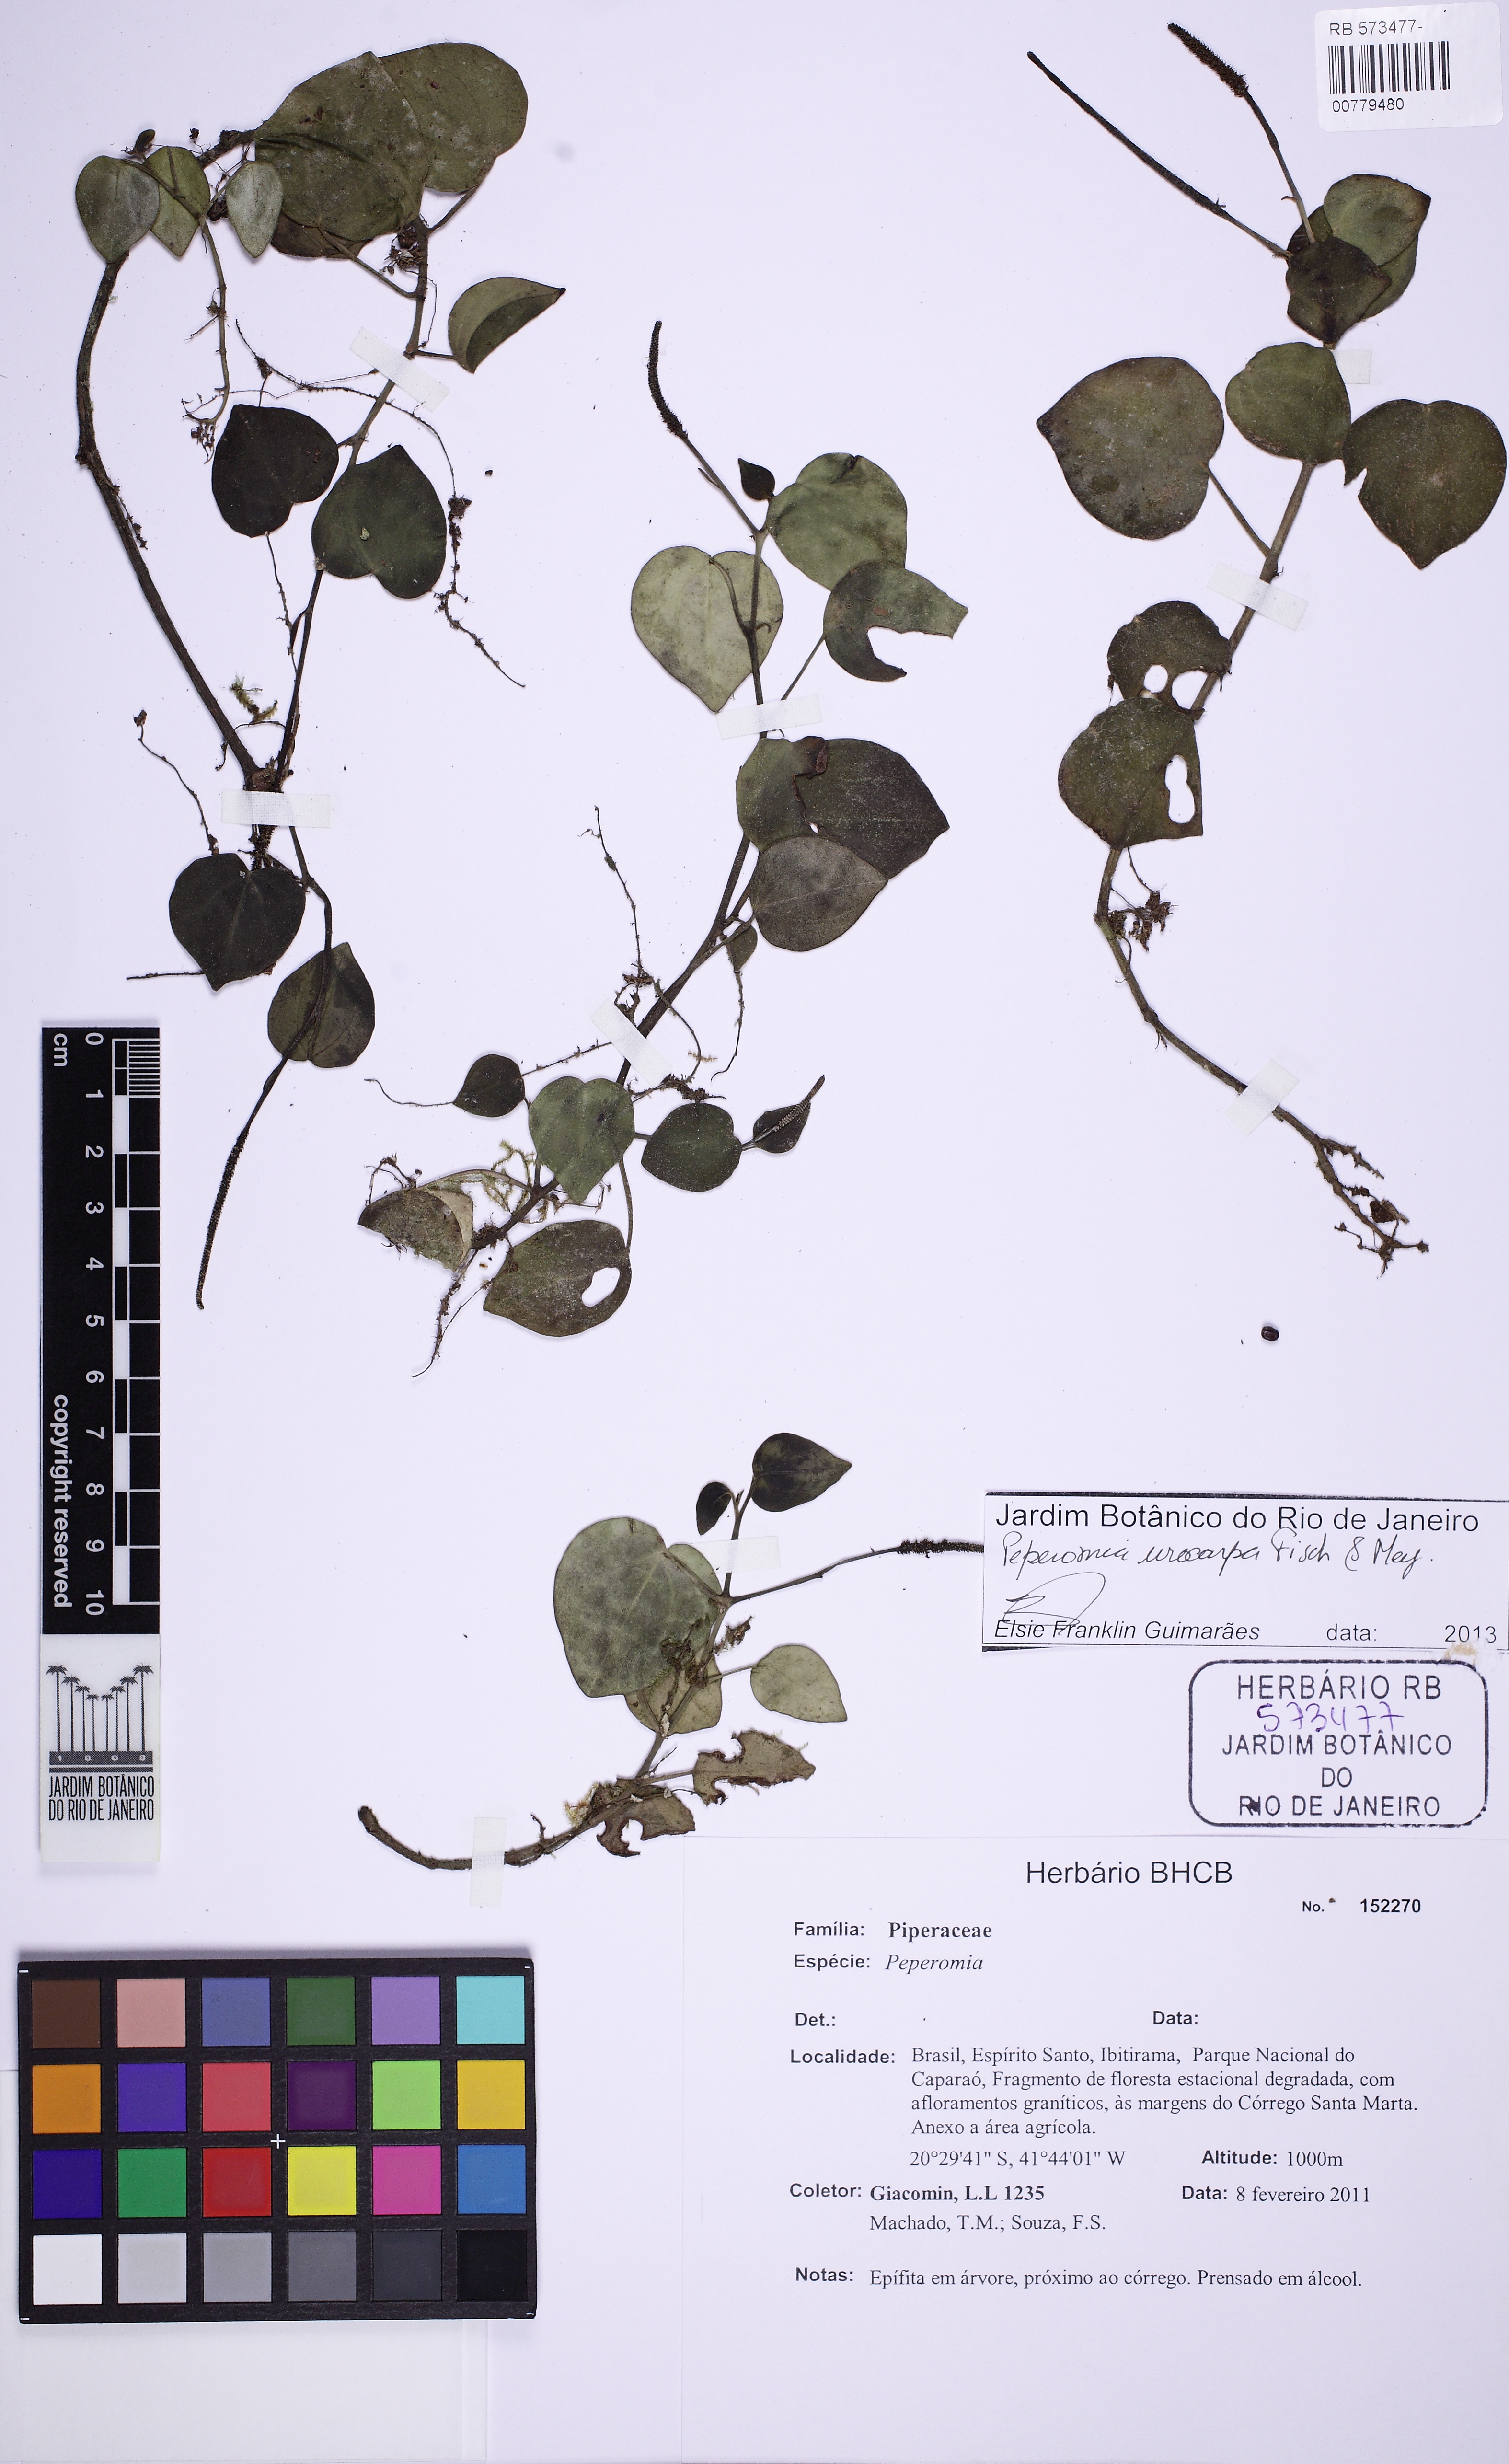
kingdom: Plantae
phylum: Tracheophyta
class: Magnoliopsida
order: Piperales
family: Piperaceae
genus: Peperomia
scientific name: Peperomia urocarpa
